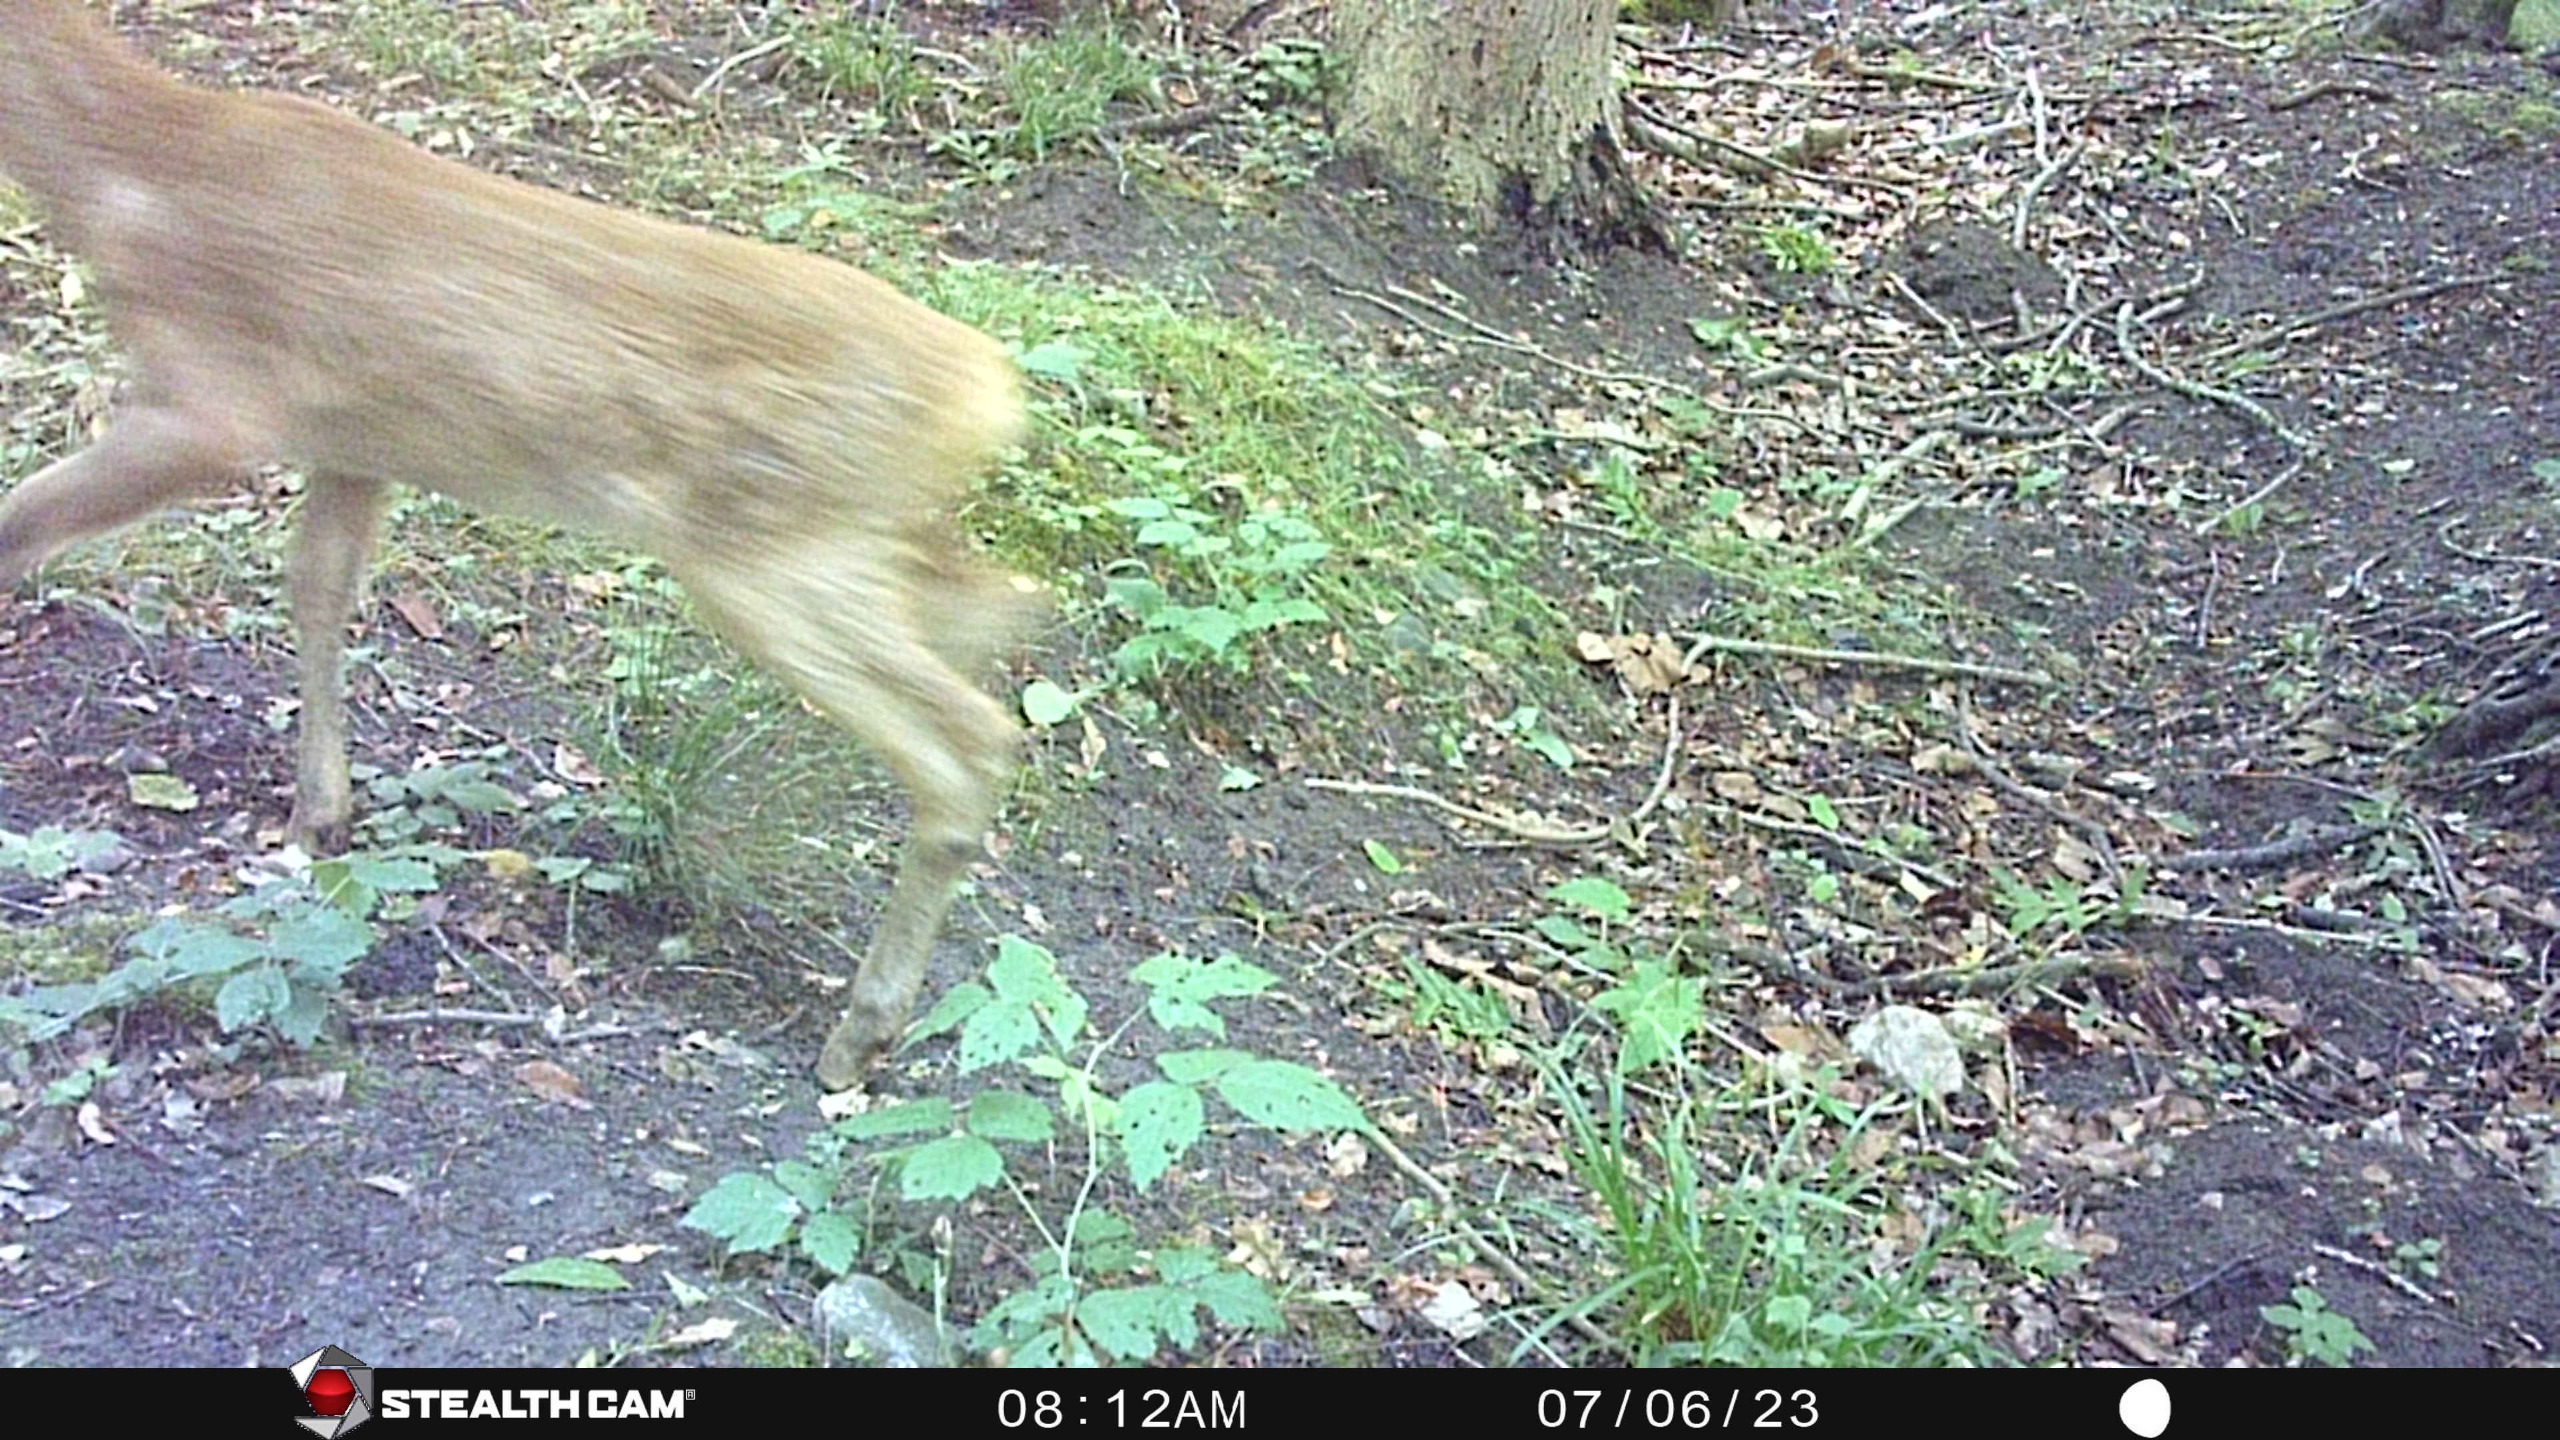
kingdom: Animalia
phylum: Chordata
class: Mammalia
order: Artiodactyla
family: Cervidae
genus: Capreolus
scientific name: Capreolus capreolus
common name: Rådyr
